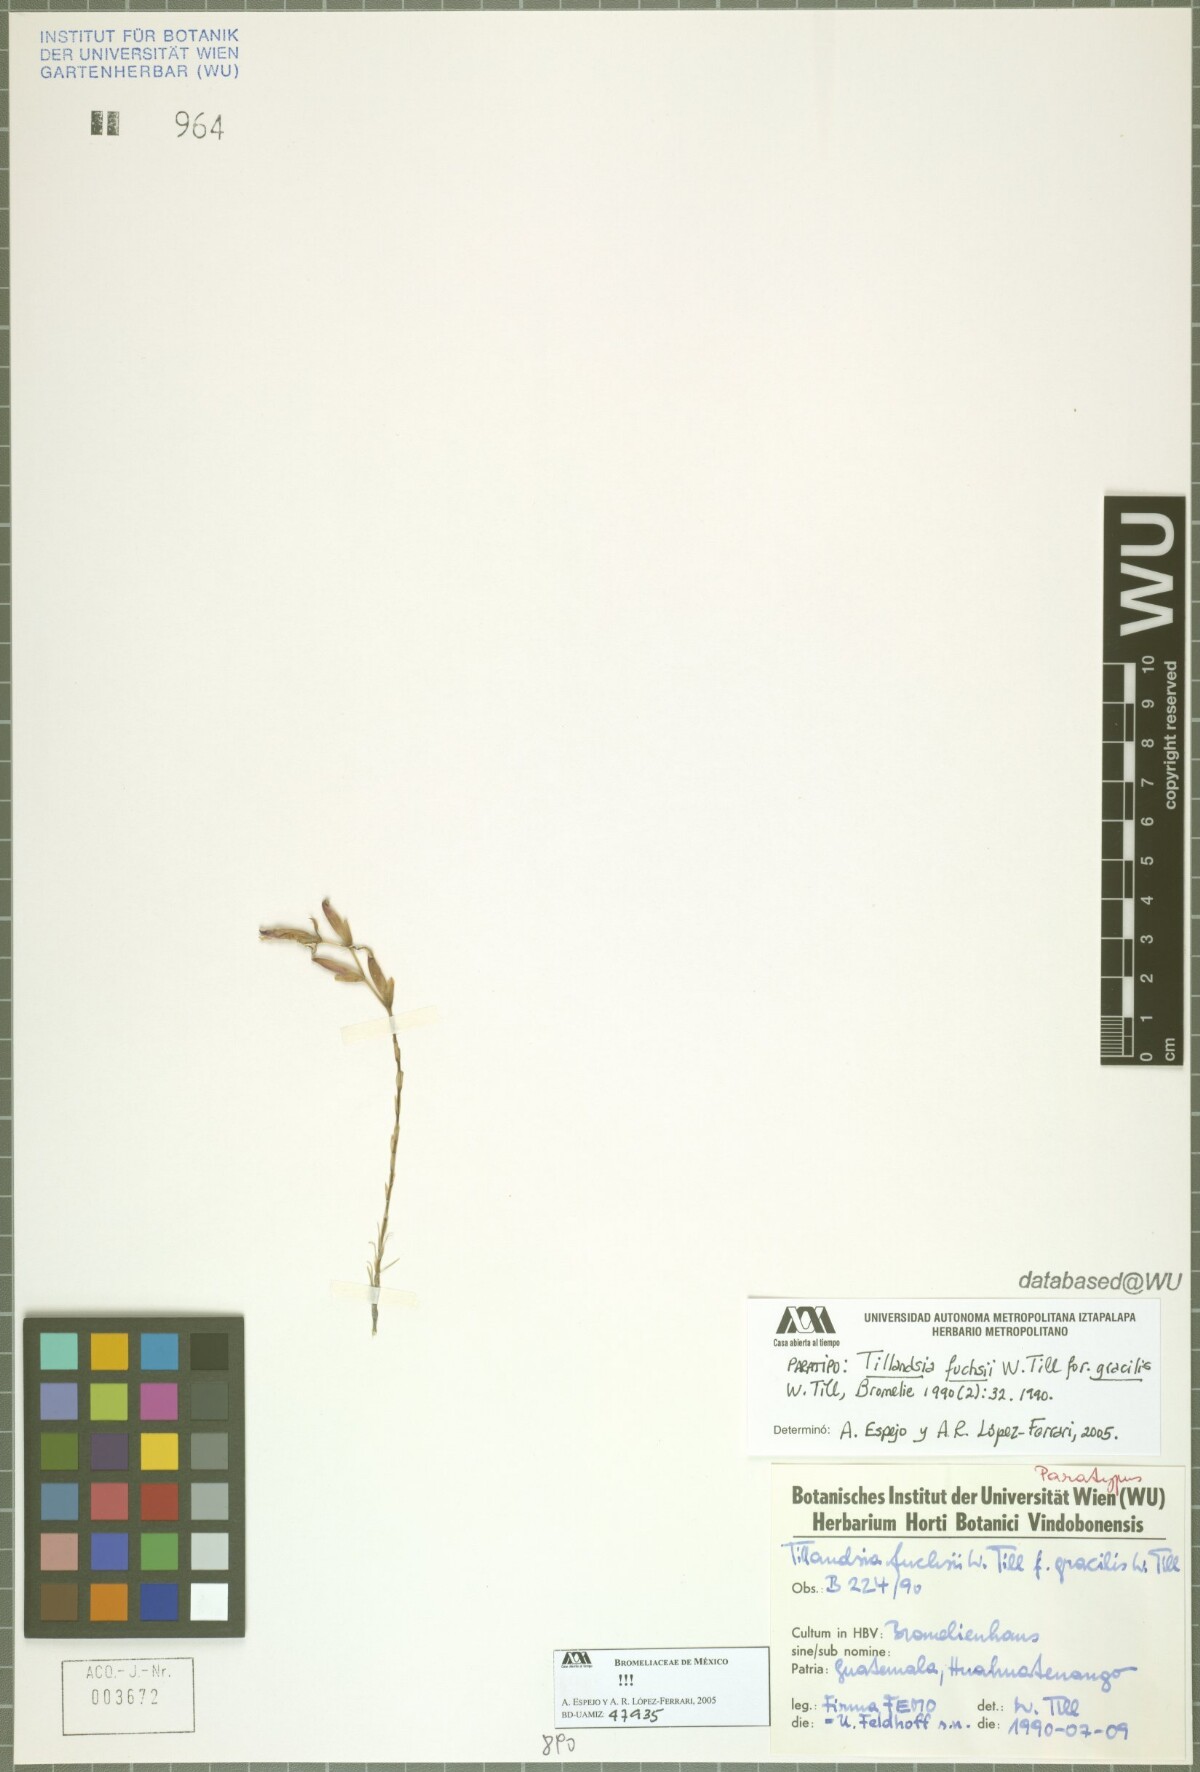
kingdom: Plantae
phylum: Tracheophyta
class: Liliopsida
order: Poales
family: Bromeliaceae
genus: Tillandsia
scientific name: Tillandsia fuchsii
